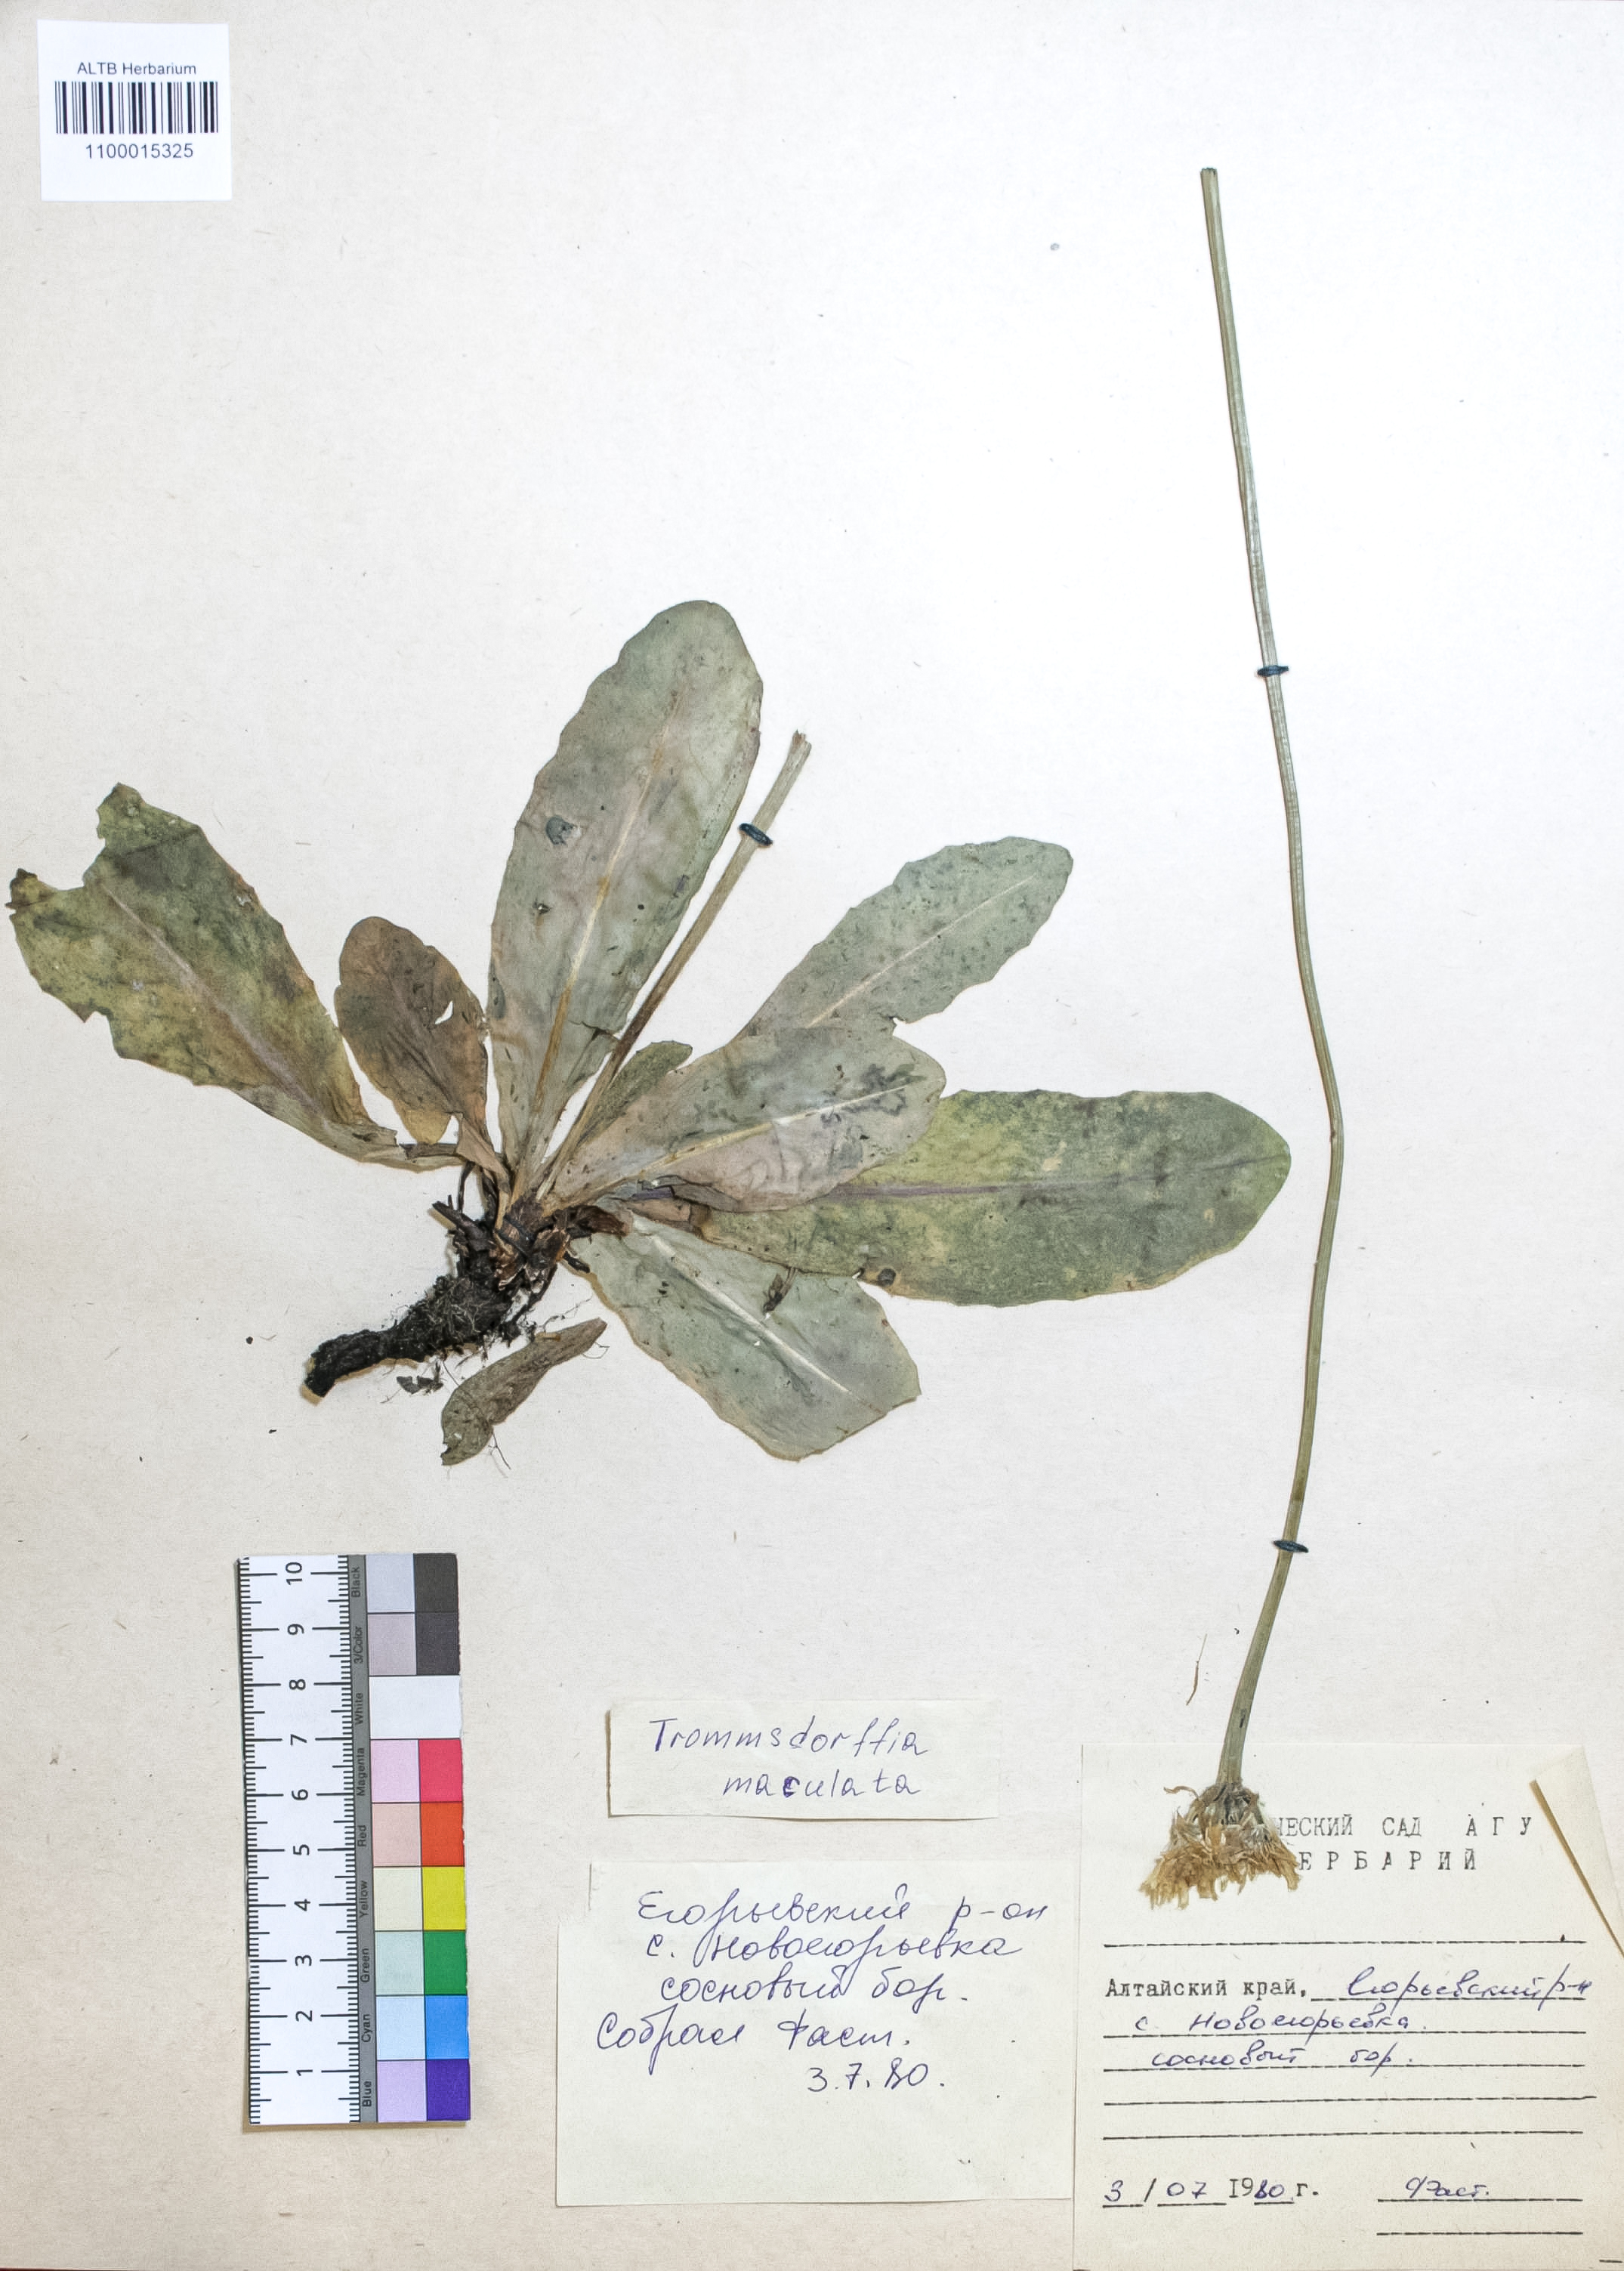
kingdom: Plantae
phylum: Tracheophyta
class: Magnoliopsida
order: Asterales
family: Asteraceae
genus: Trommsdorffia
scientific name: Trommsdorffia maculata
